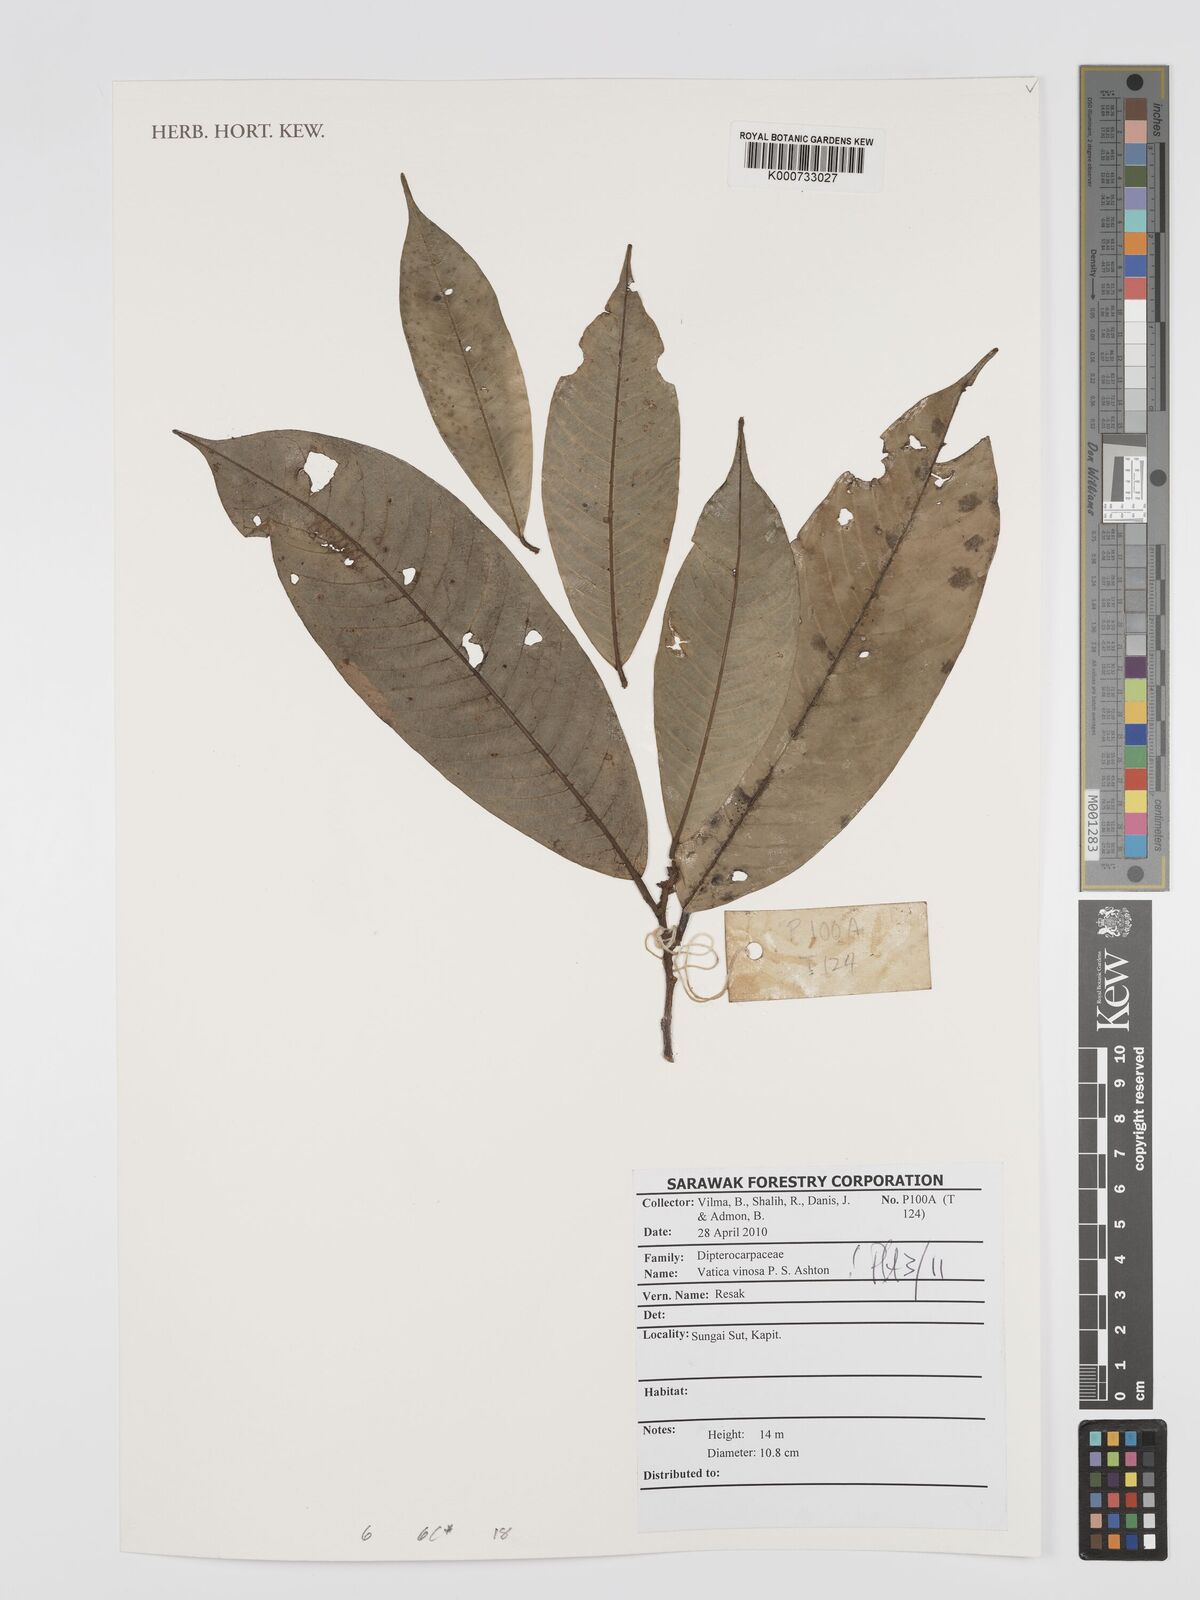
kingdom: Plantae
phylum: Tracheophyta
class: Magnoliopsida
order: Malvales
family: Dipterocarpaceae
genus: Vatica
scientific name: Vatica vinosa
